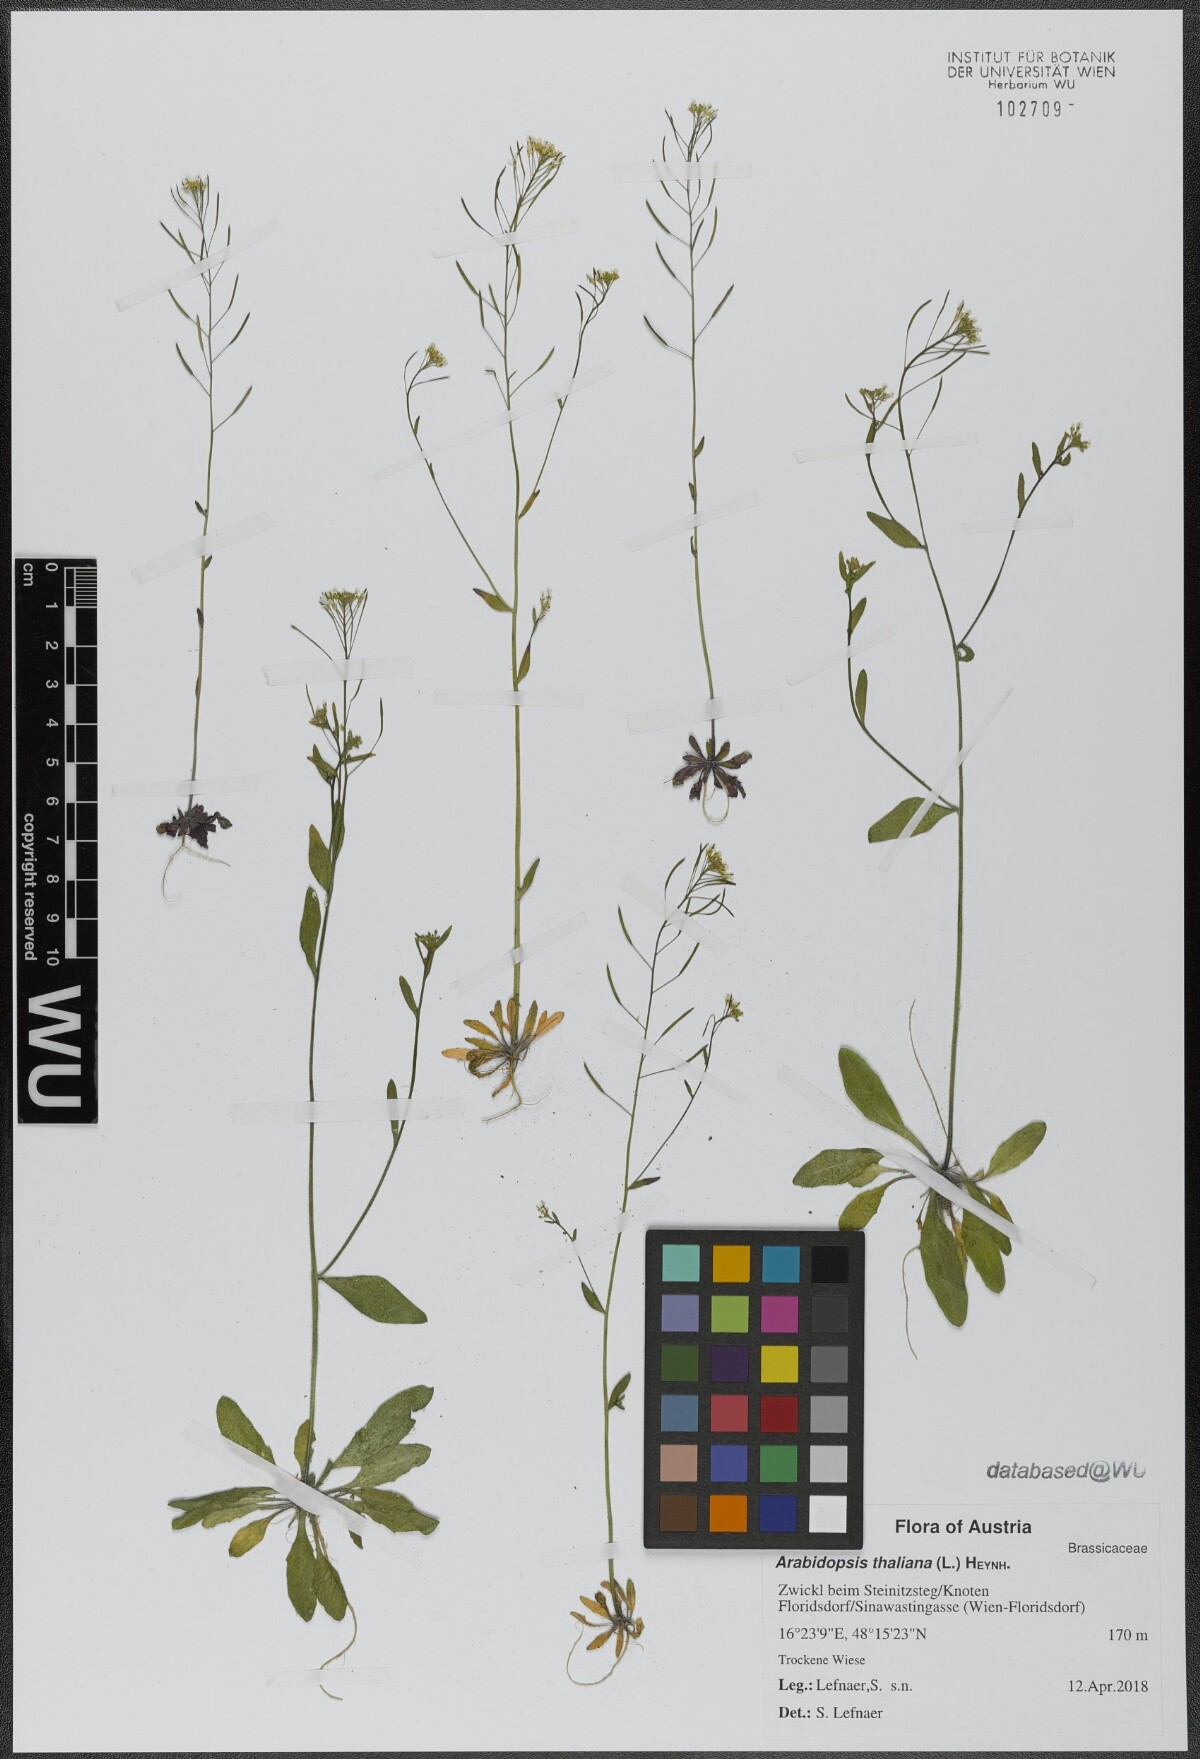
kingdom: Plantae
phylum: Tracheophyta
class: Magnoliopsida
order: Brassicales
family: Brassicaceae
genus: Arabidopsis
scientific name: Arabidopsis thaliana
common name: Thale cress
